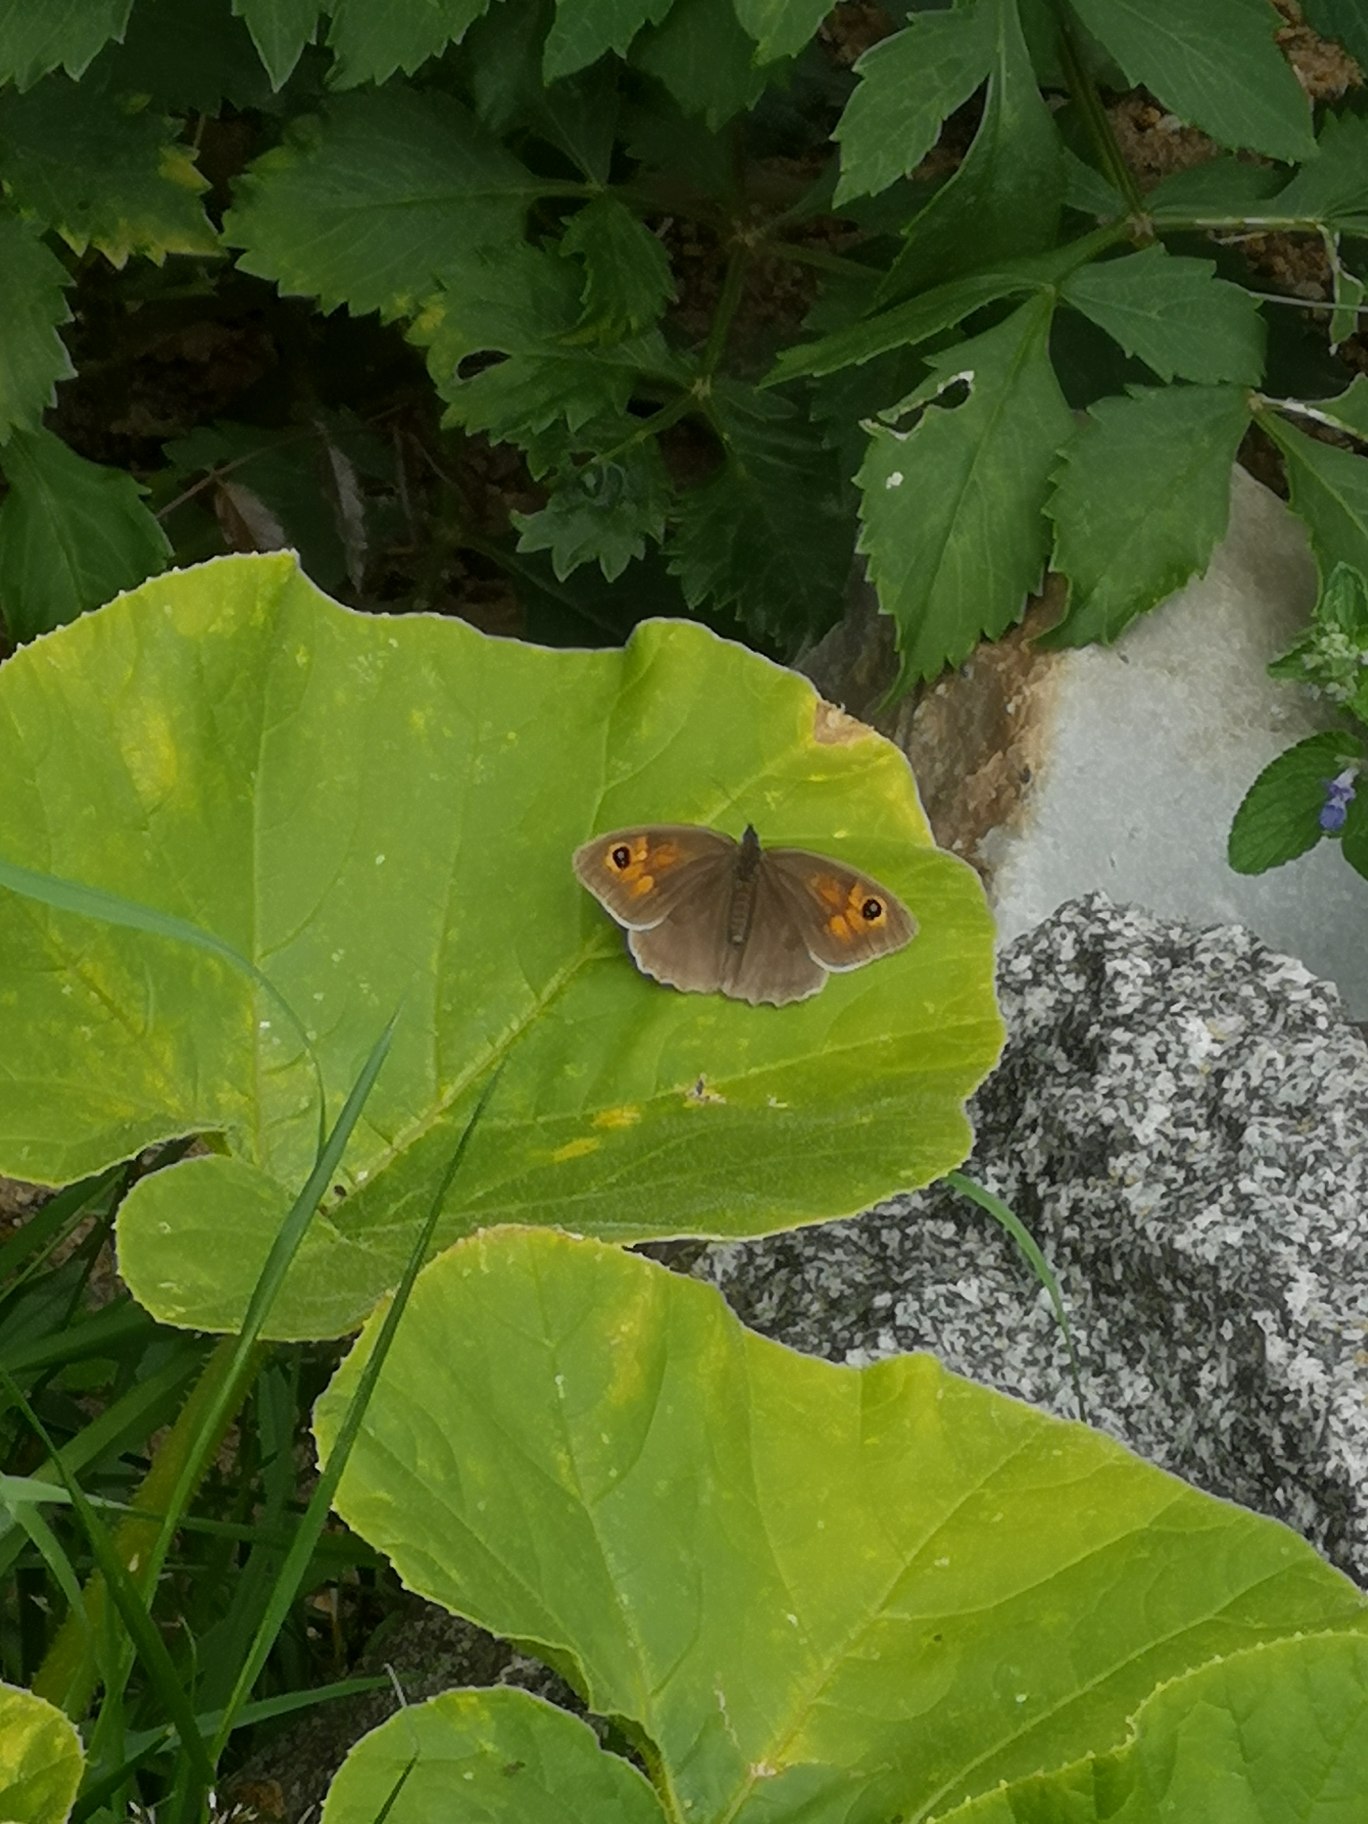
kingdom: Animalia
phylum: Arthropoda
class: Insecta
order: Lepidoptera
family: Nymphalidae
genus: Maniola
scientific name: Maniola jurtina
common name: Græsrandøje
